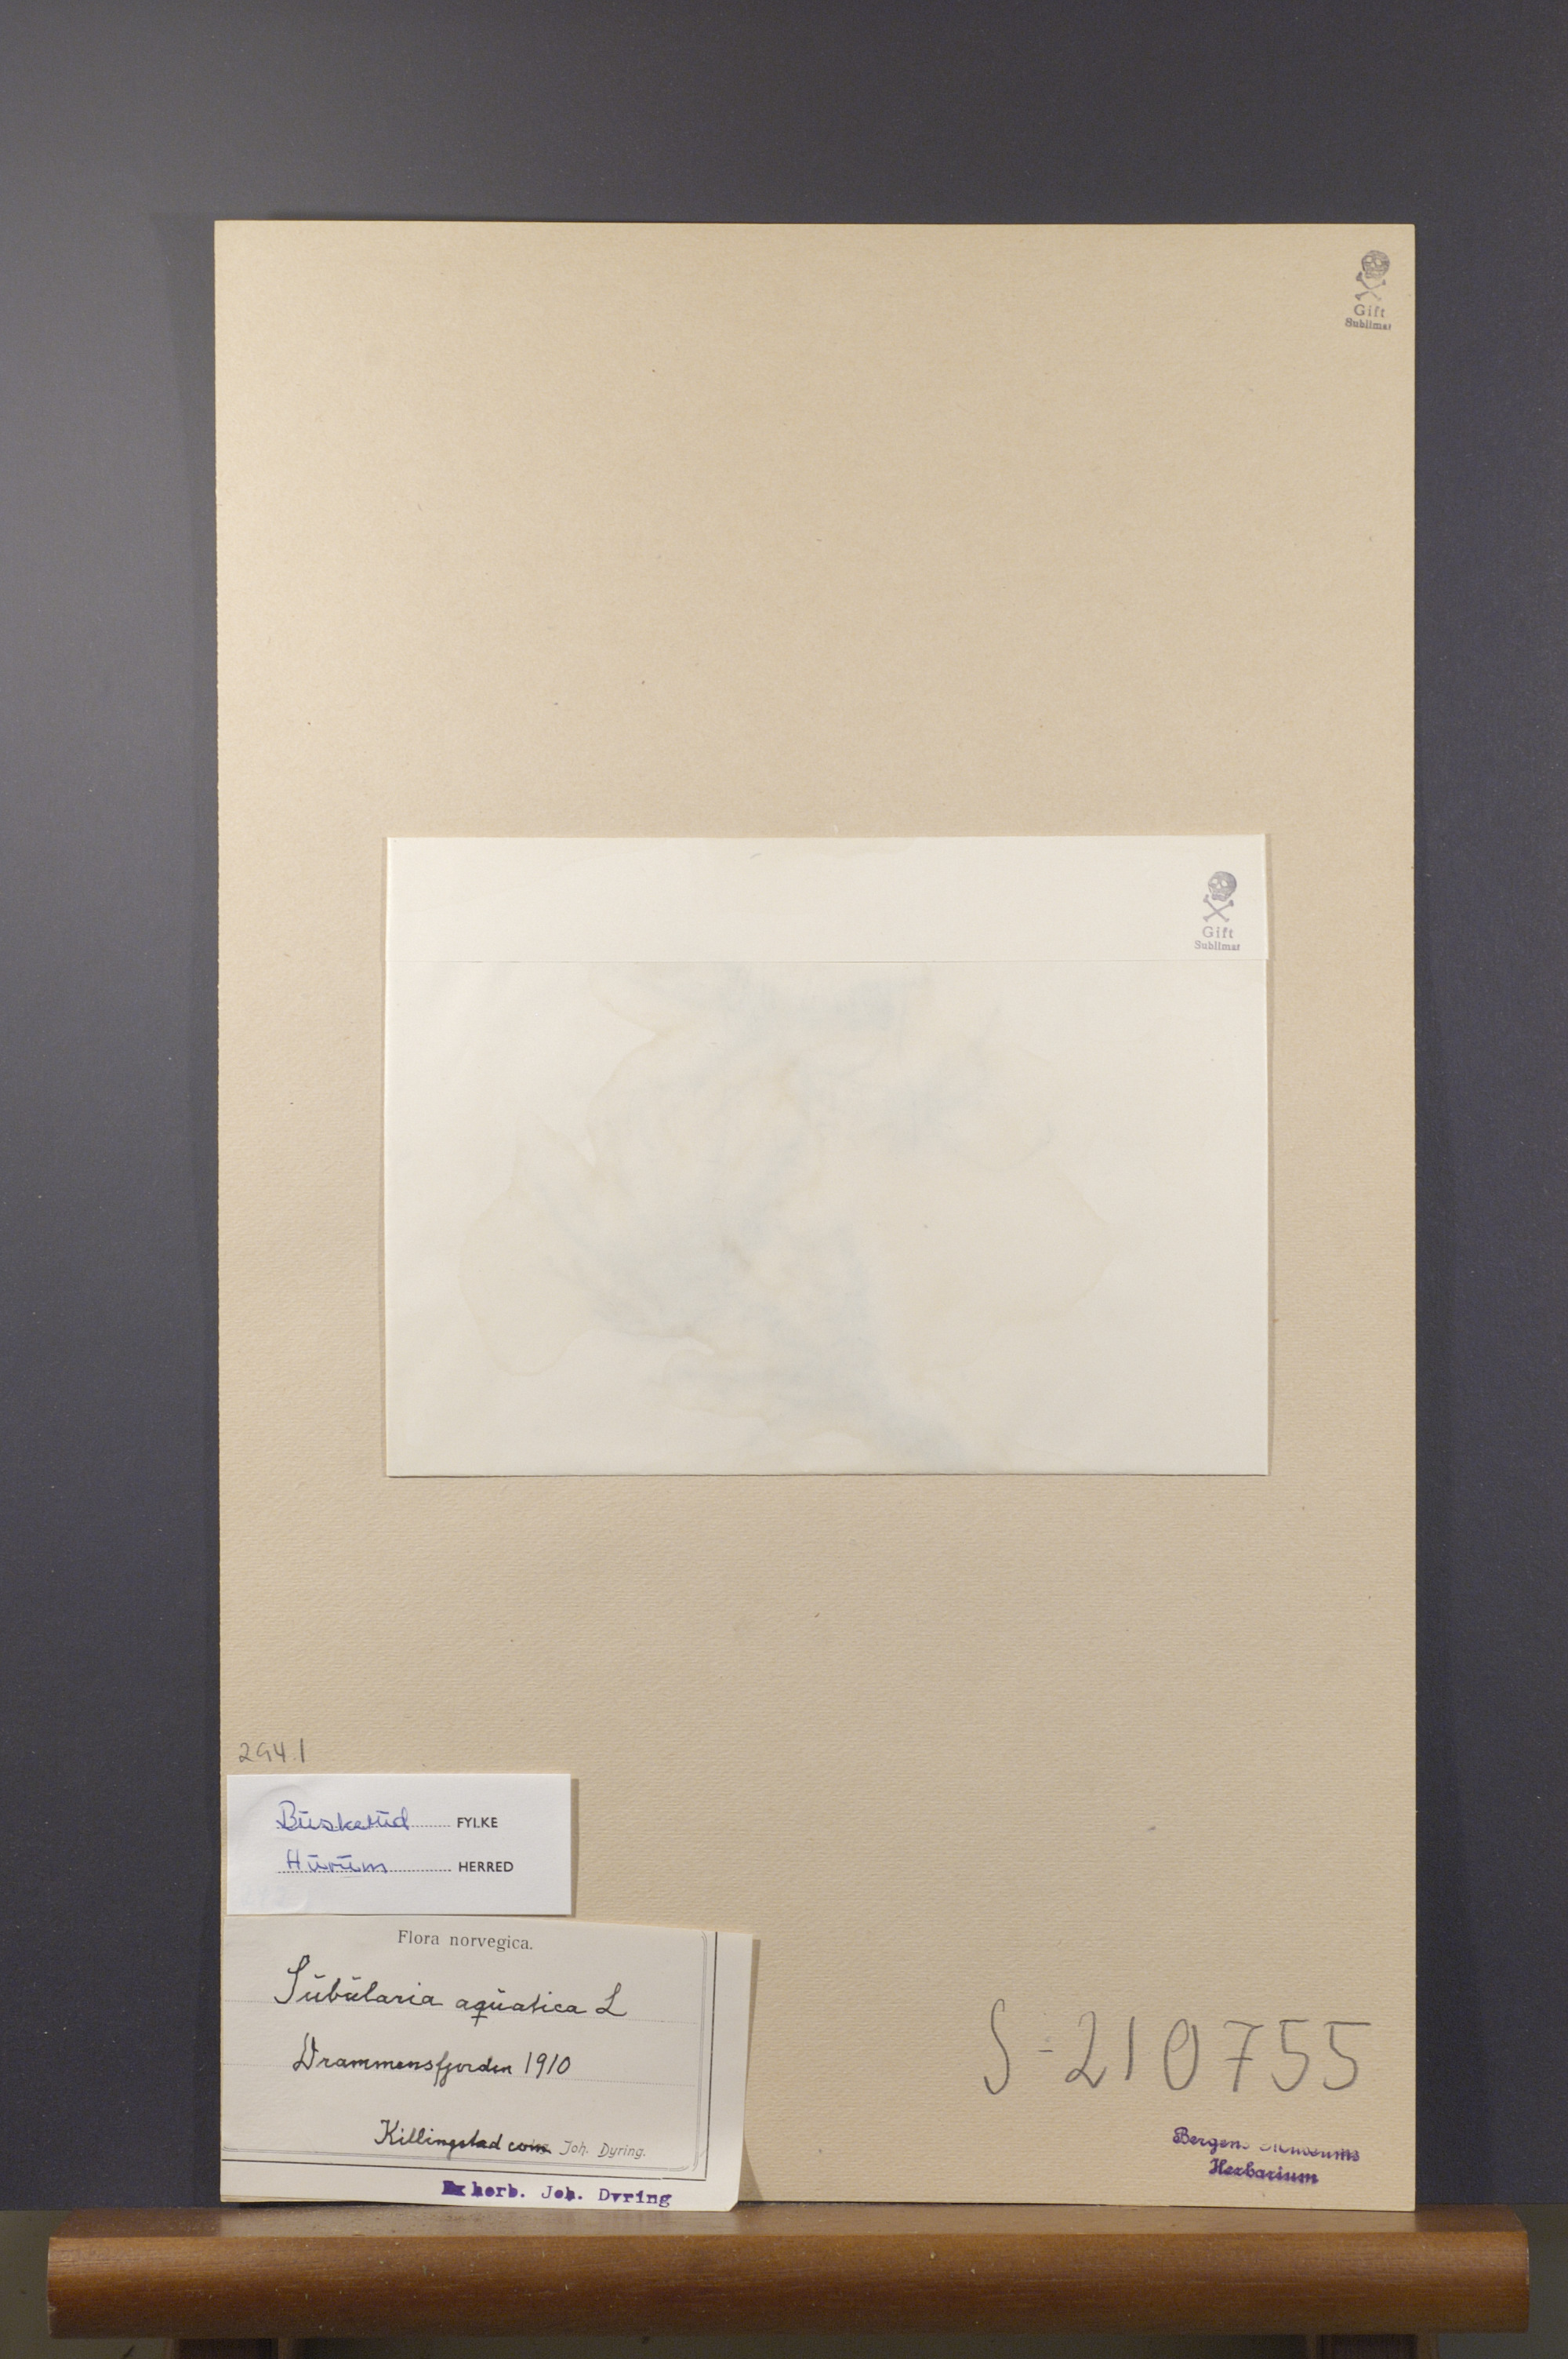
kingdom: Plantae
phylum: Tracheophyta
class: Magnoliopsida
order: Brassicales
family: Brassicaceae
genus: Subularia
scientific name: Subularia aquatica
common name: Awlwort
